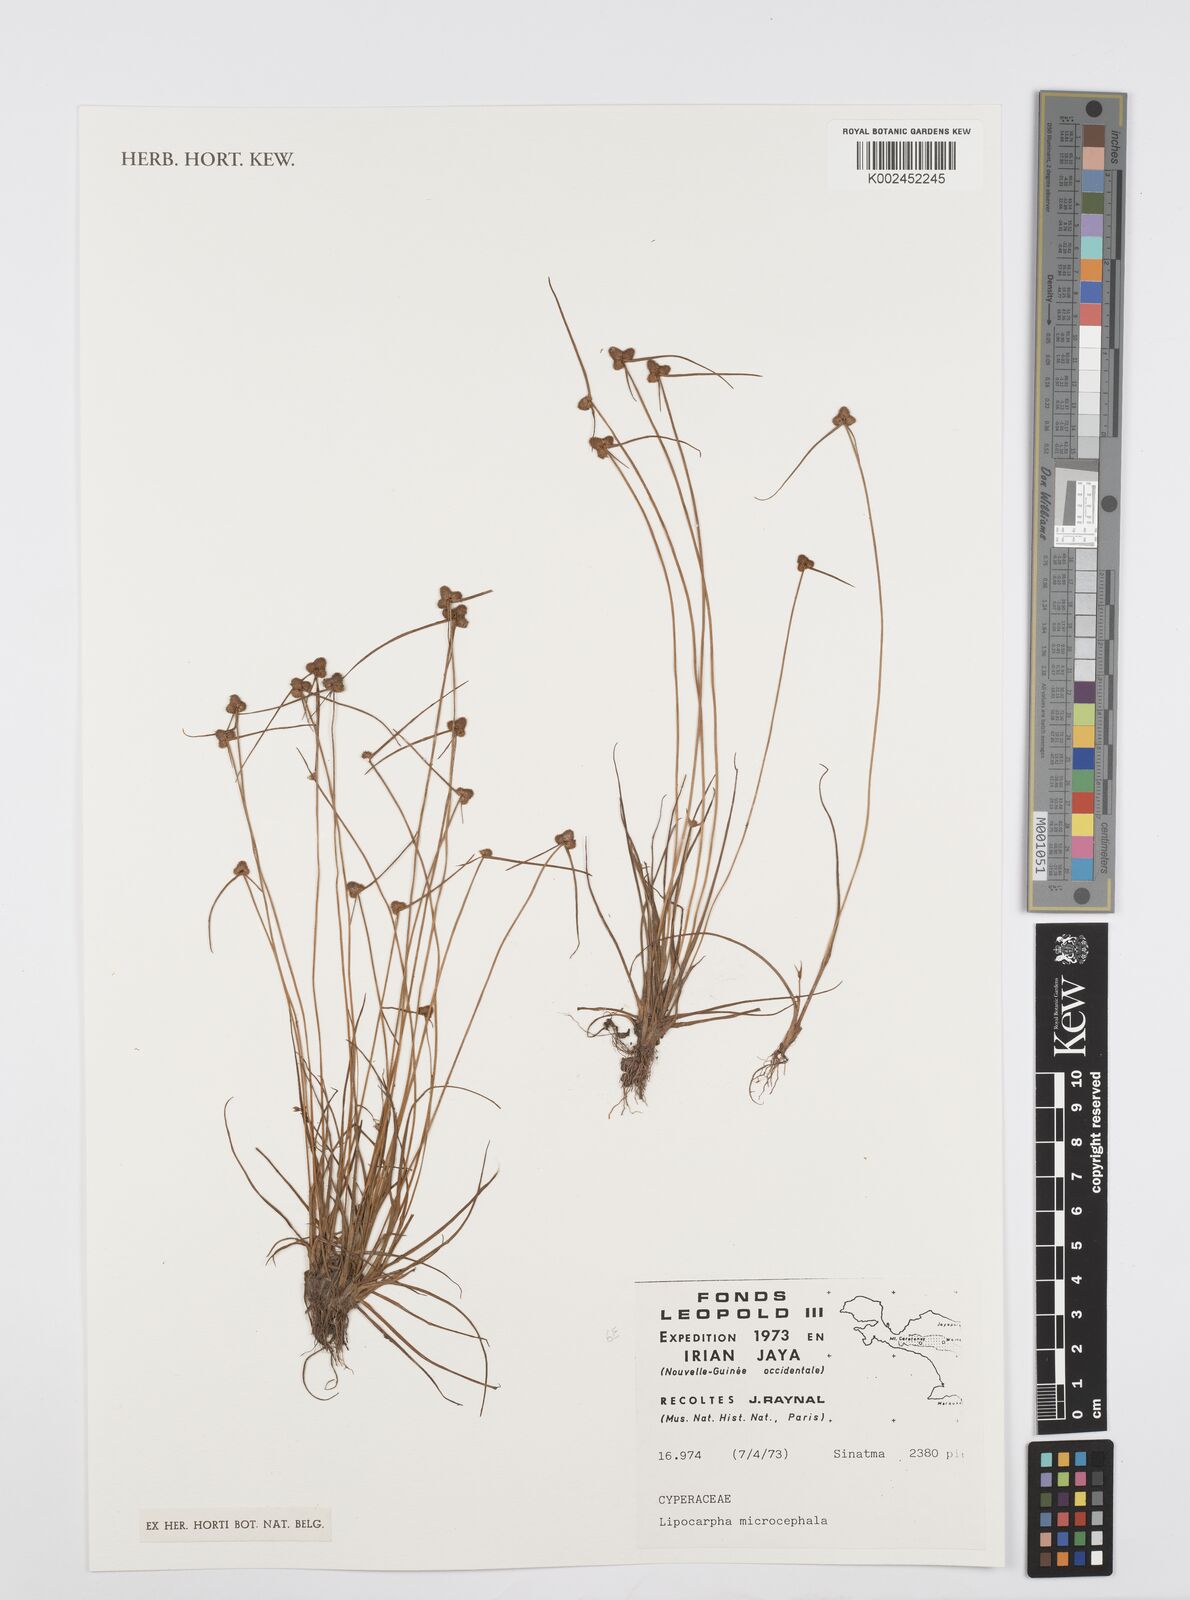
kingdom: Plantae
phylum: Tracheophyta
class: Liliopsida
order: Poales
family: Cyperaceae
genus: Cyperus
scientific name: Cyperus microcephalus
